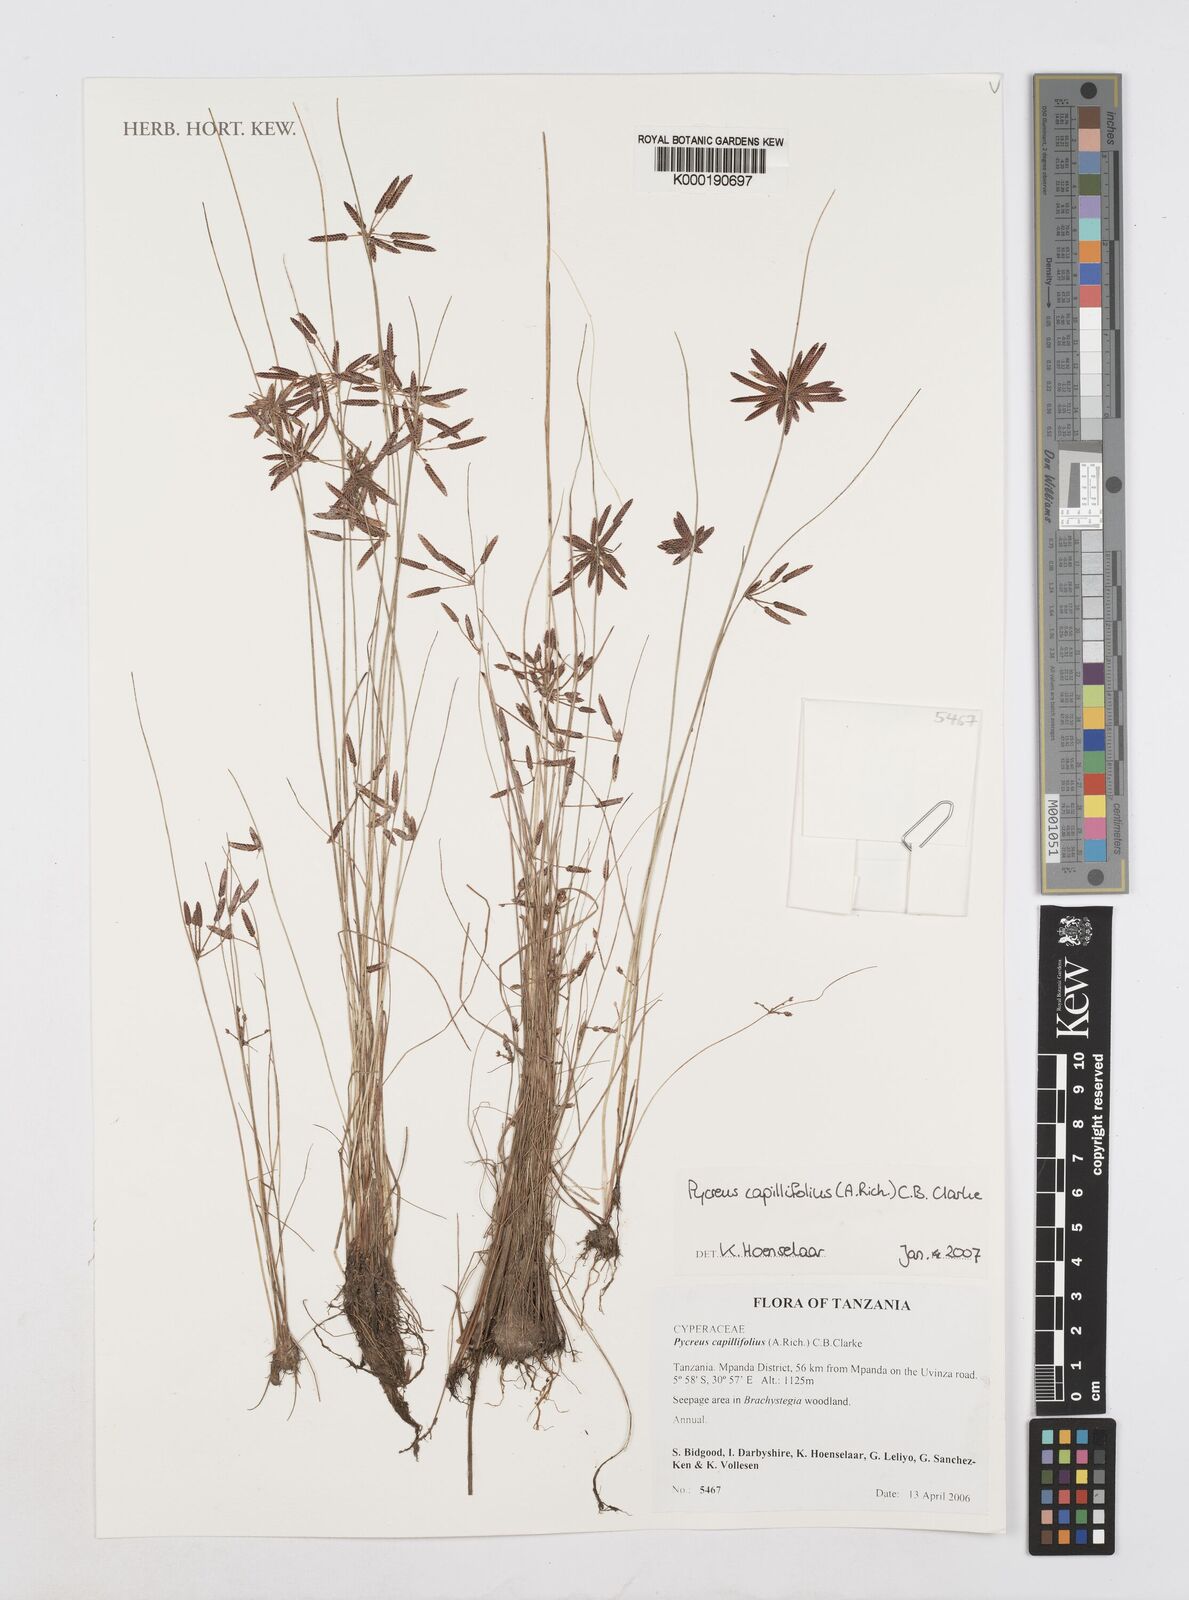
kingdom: Plantae
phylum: Tracheophyta
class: Liliopsida
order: Poales
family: Cyperaceae
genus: Cyperus
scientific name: Cyperus capillifolius
